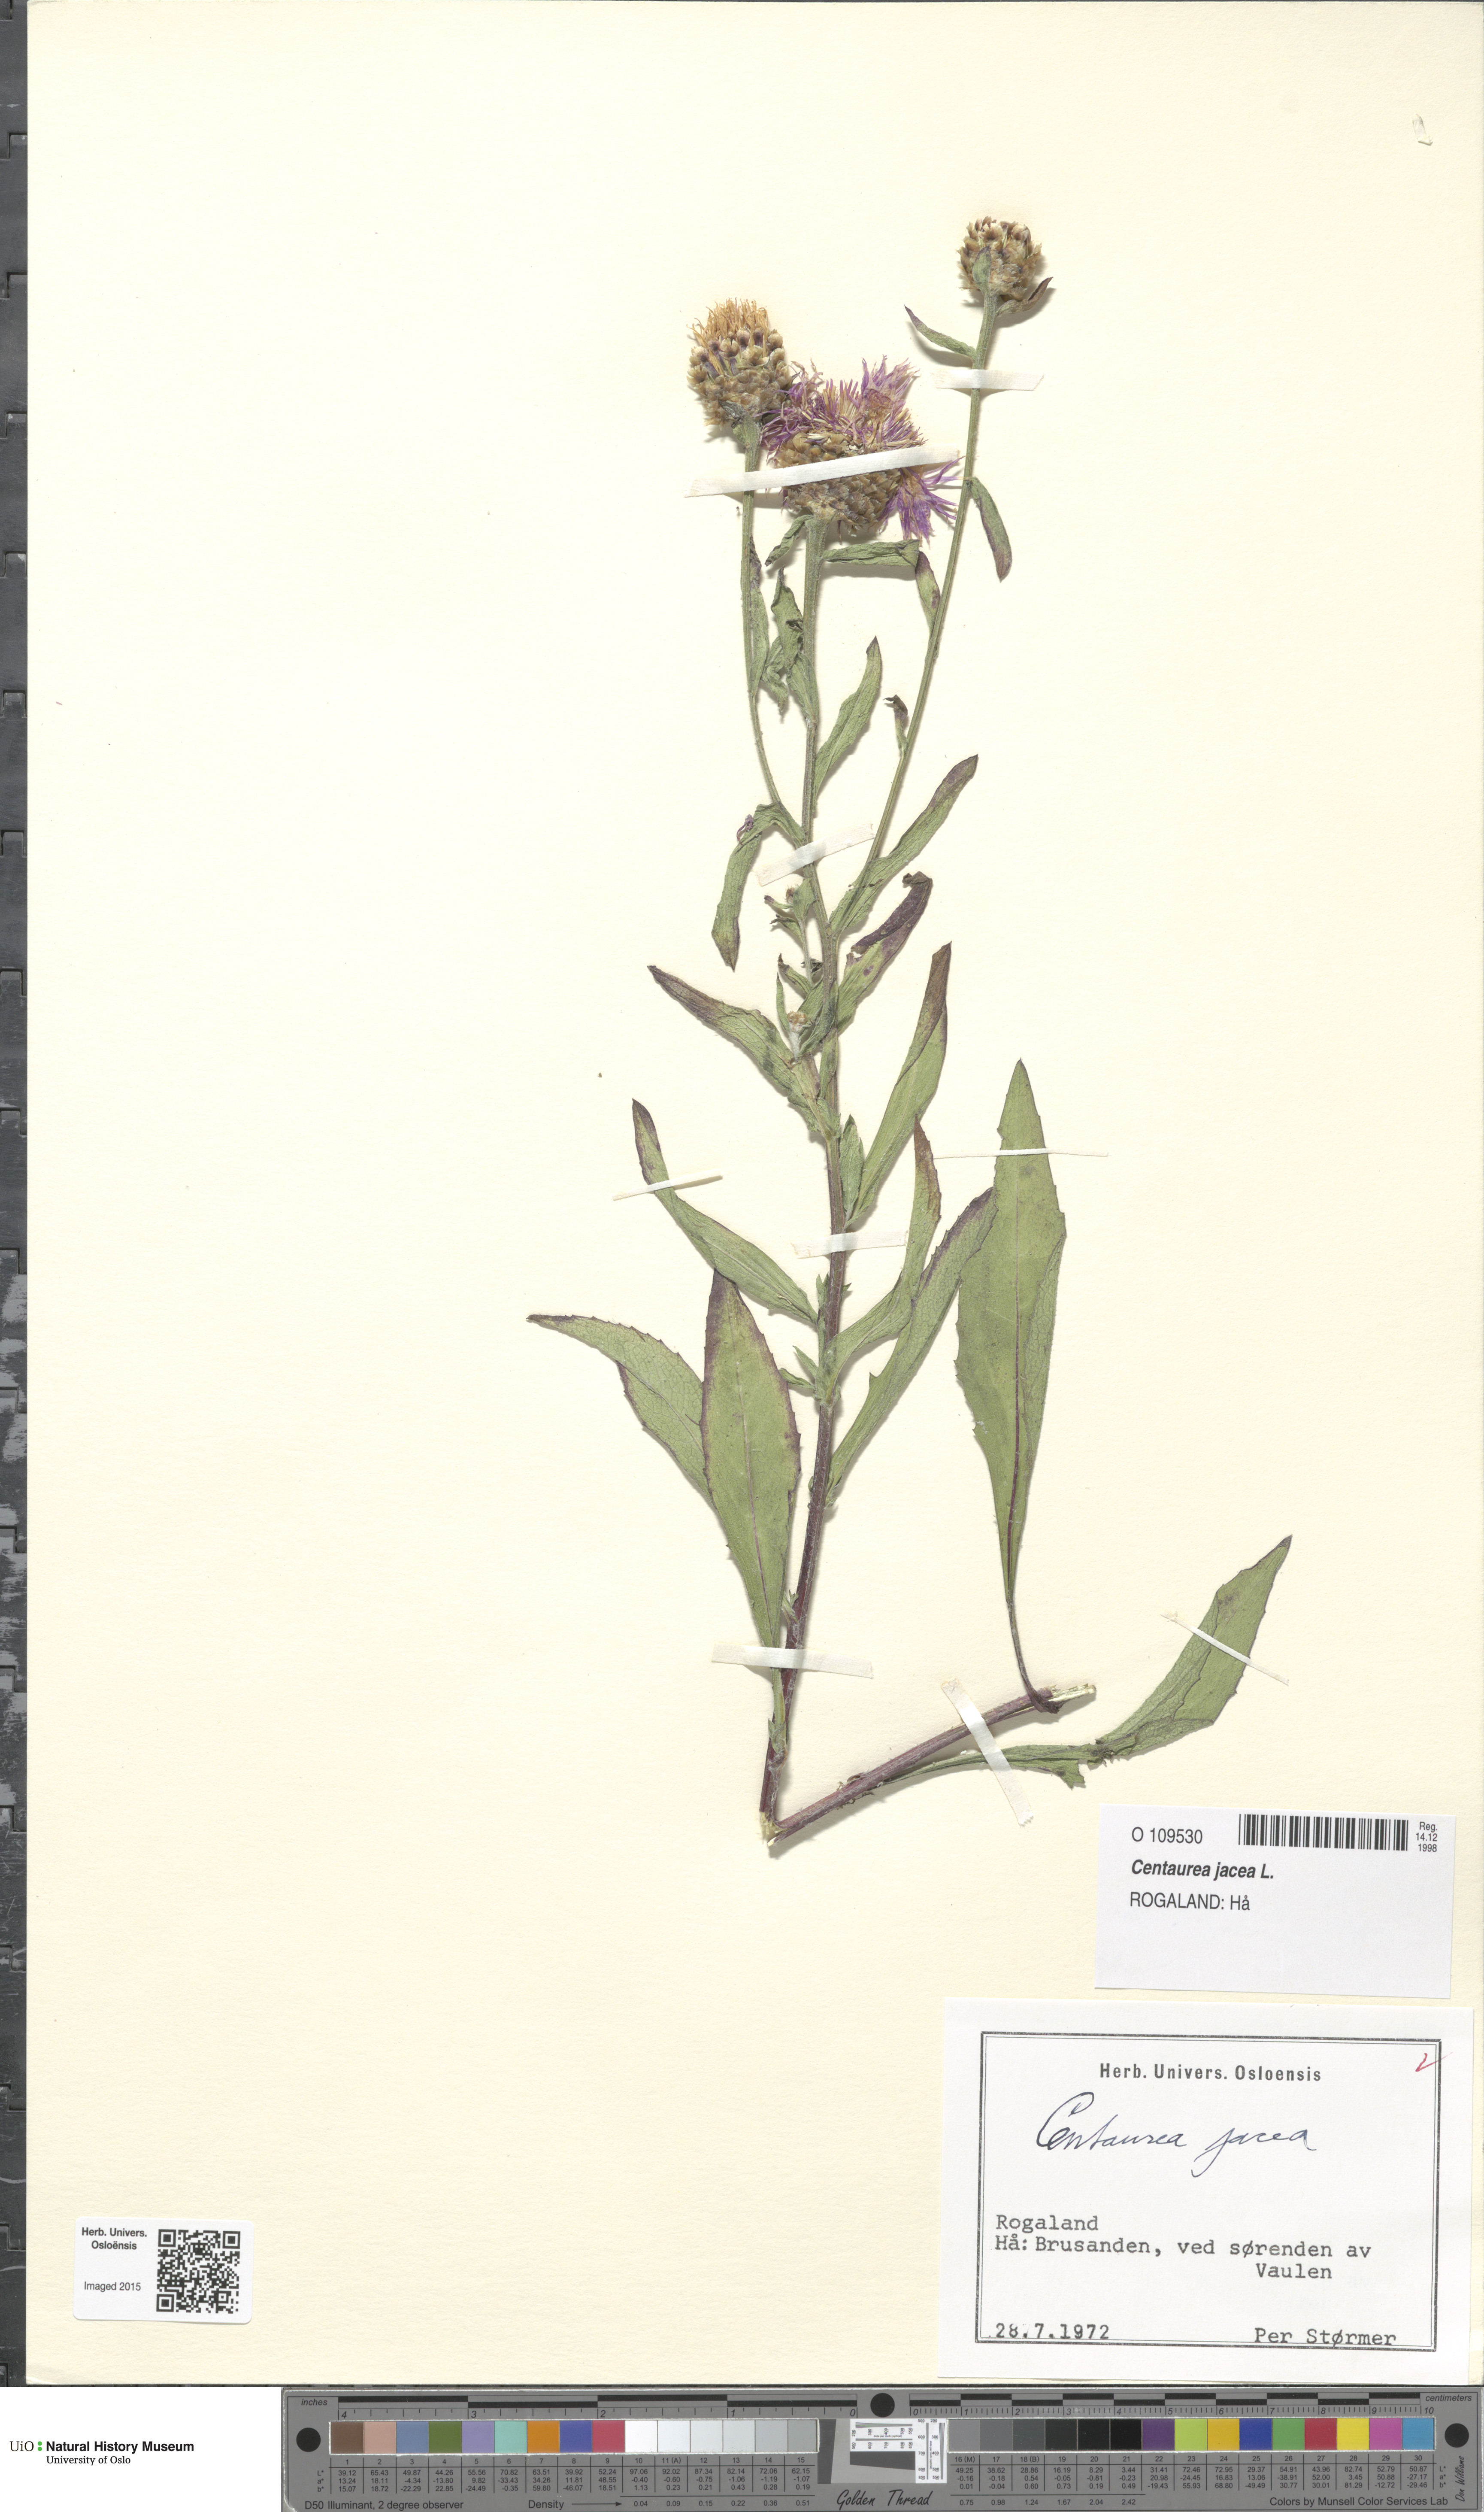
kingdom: Plantae
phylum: Tracheophyta
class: Magnoliopsida
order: Asterales
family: Asteraceae
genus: Centaurea
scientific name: Centaurea jacea
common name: Brown knapweed
